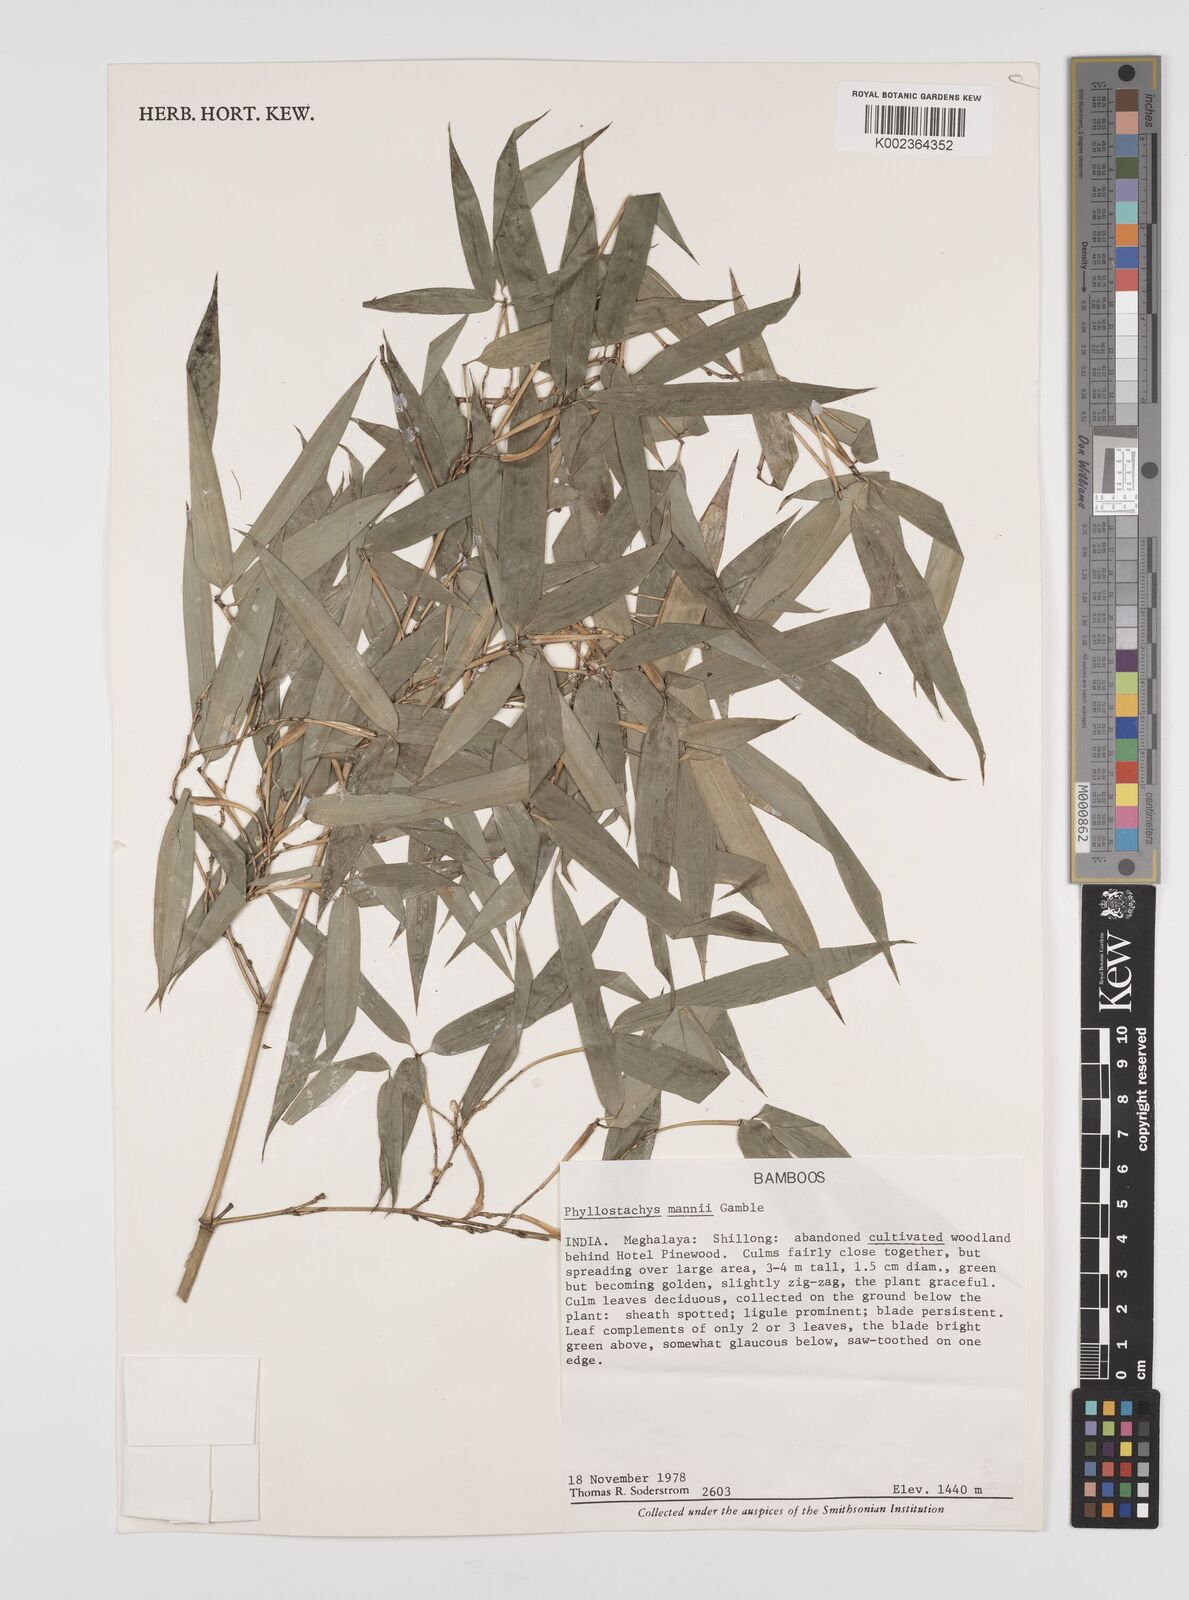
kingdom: Plantae
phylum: Tracheophyta
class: Liliopsida
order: Poales
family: Poaceae
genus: Phyllostachys
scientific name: Phyllostachys mannii
